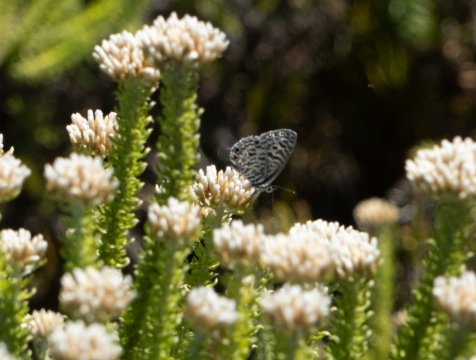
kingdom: Animalia
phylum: Arthropoda
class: Insecta
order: Lepidoptera
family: Lycaenidae
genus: Leptotes
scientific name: Leptotes pirithous
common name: Lang's Short-tailed Blue
